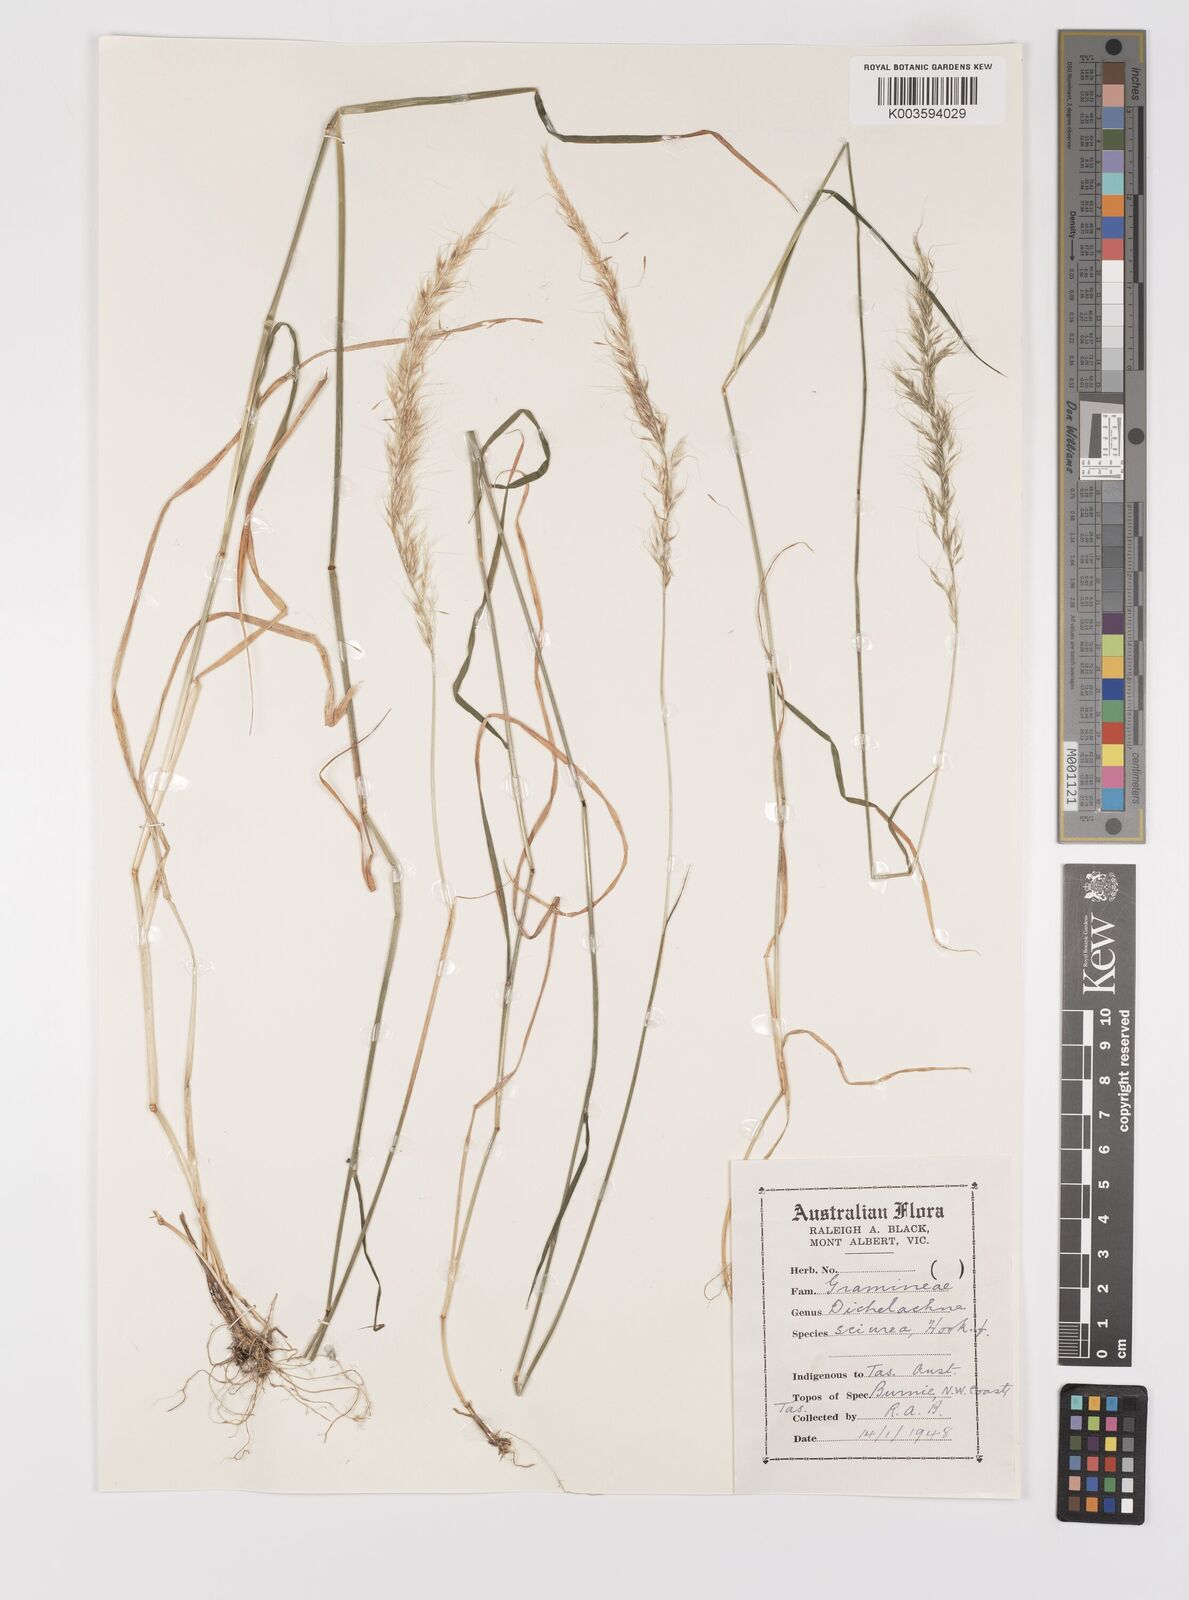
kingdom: Plantae
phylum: Tracheophyta
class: Liliopsida
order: Poales
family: Poaceae
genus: Dichelachne
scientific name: Dichelachne micrantha
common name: Plumegrass
